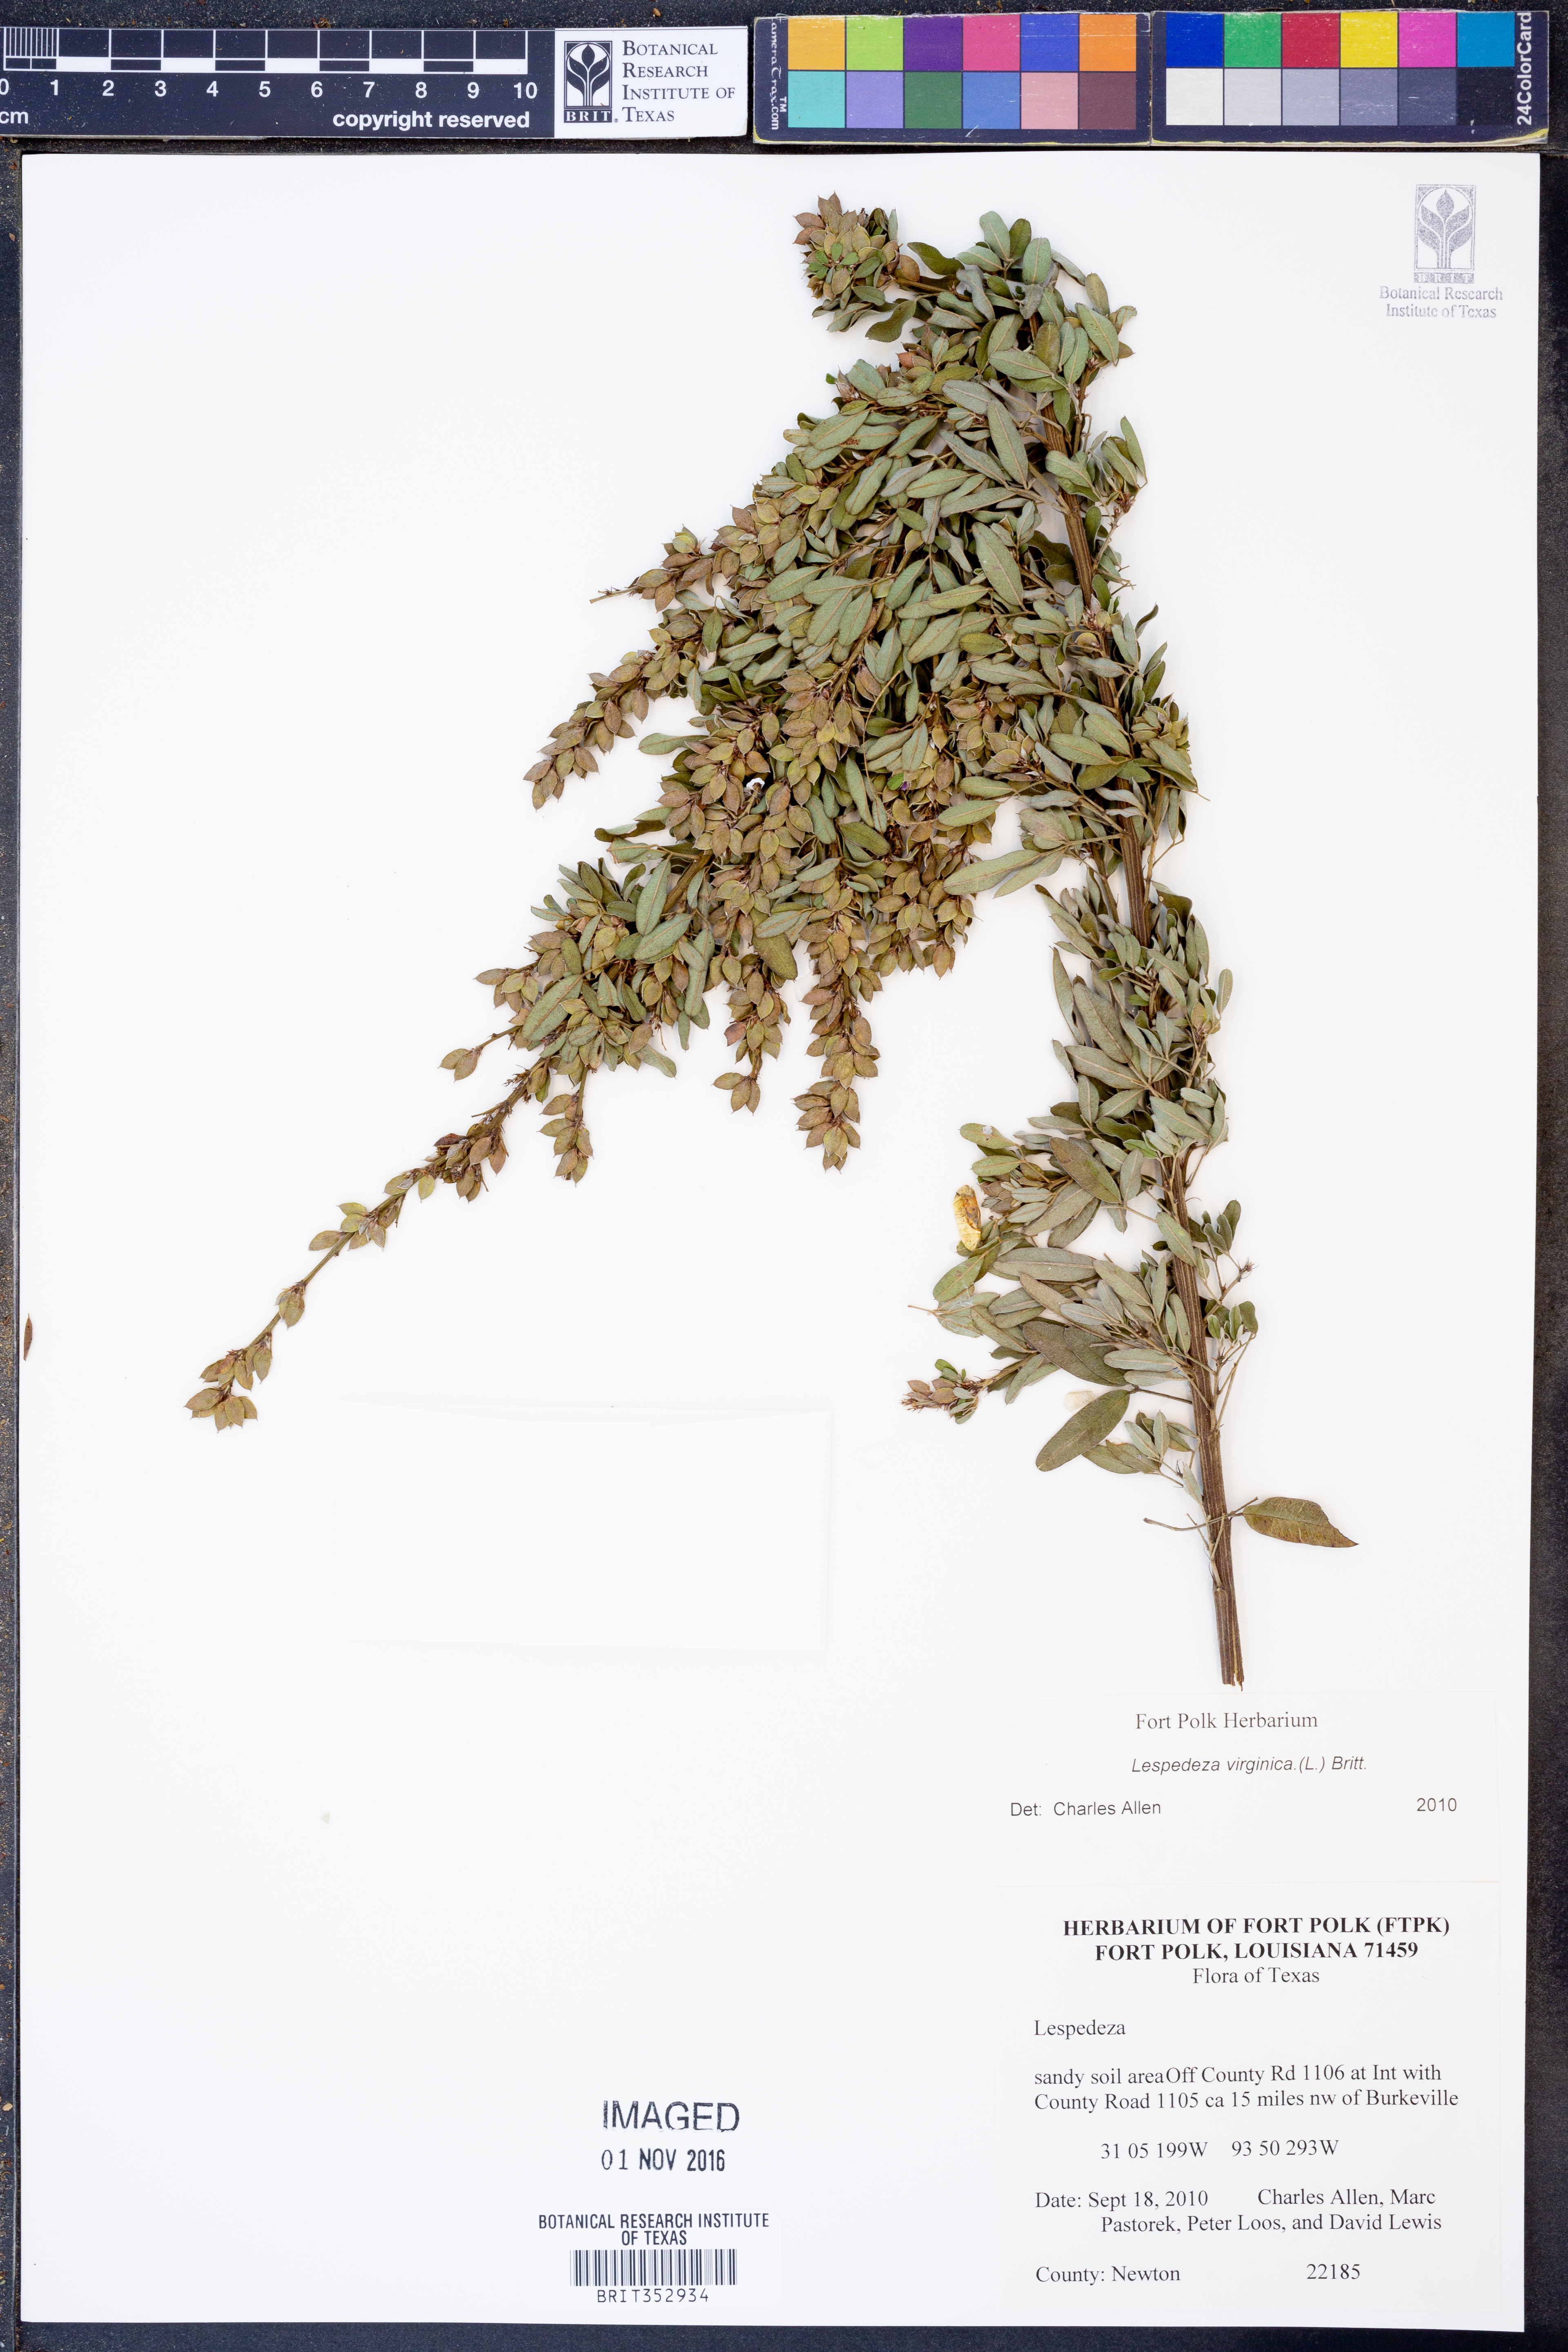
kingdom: Plantae
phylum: Tracheophyta
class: Magnoliopsida
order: Fabales
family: Fabaceae
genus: Lespedeza
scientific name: Lespedeza virginica
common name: Slender bush-clover
